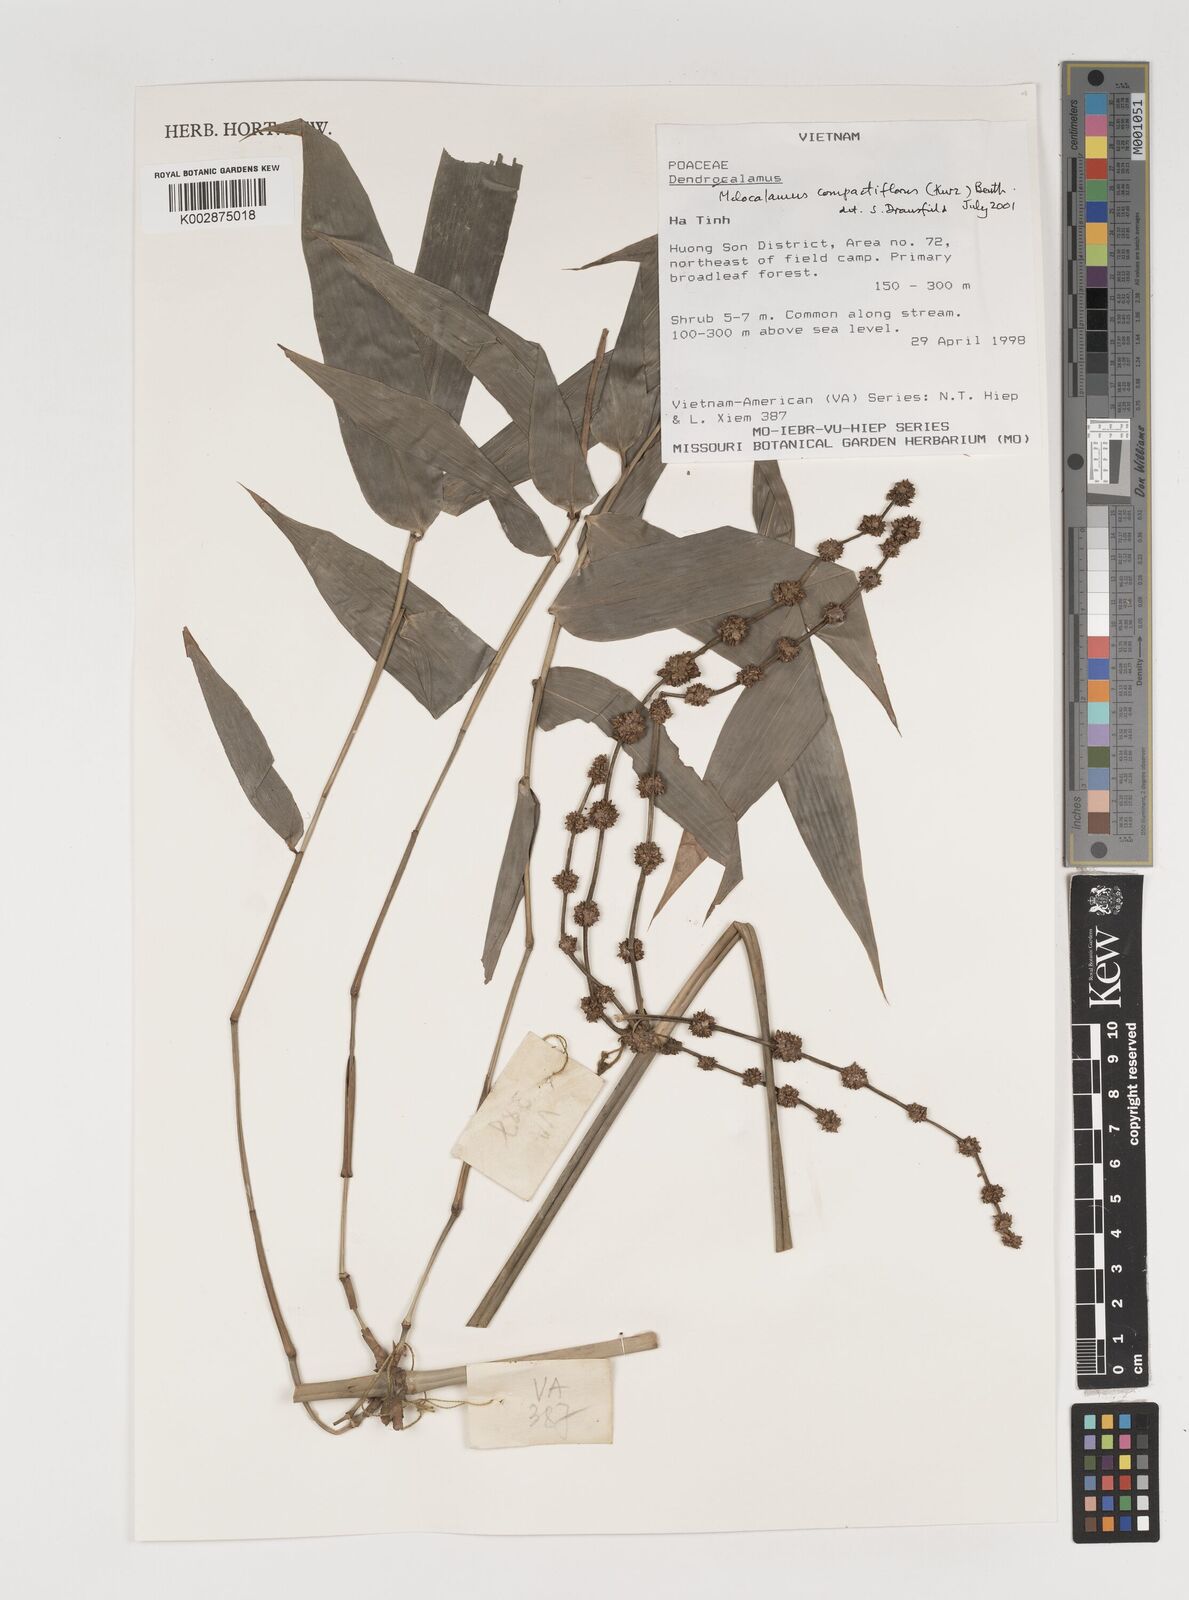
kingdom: Plantae
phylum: Tracheophyta
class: Liliopsida
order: Poales
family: Poaceae
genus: Melocalamus
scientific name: Melocalamus compactiflorus
